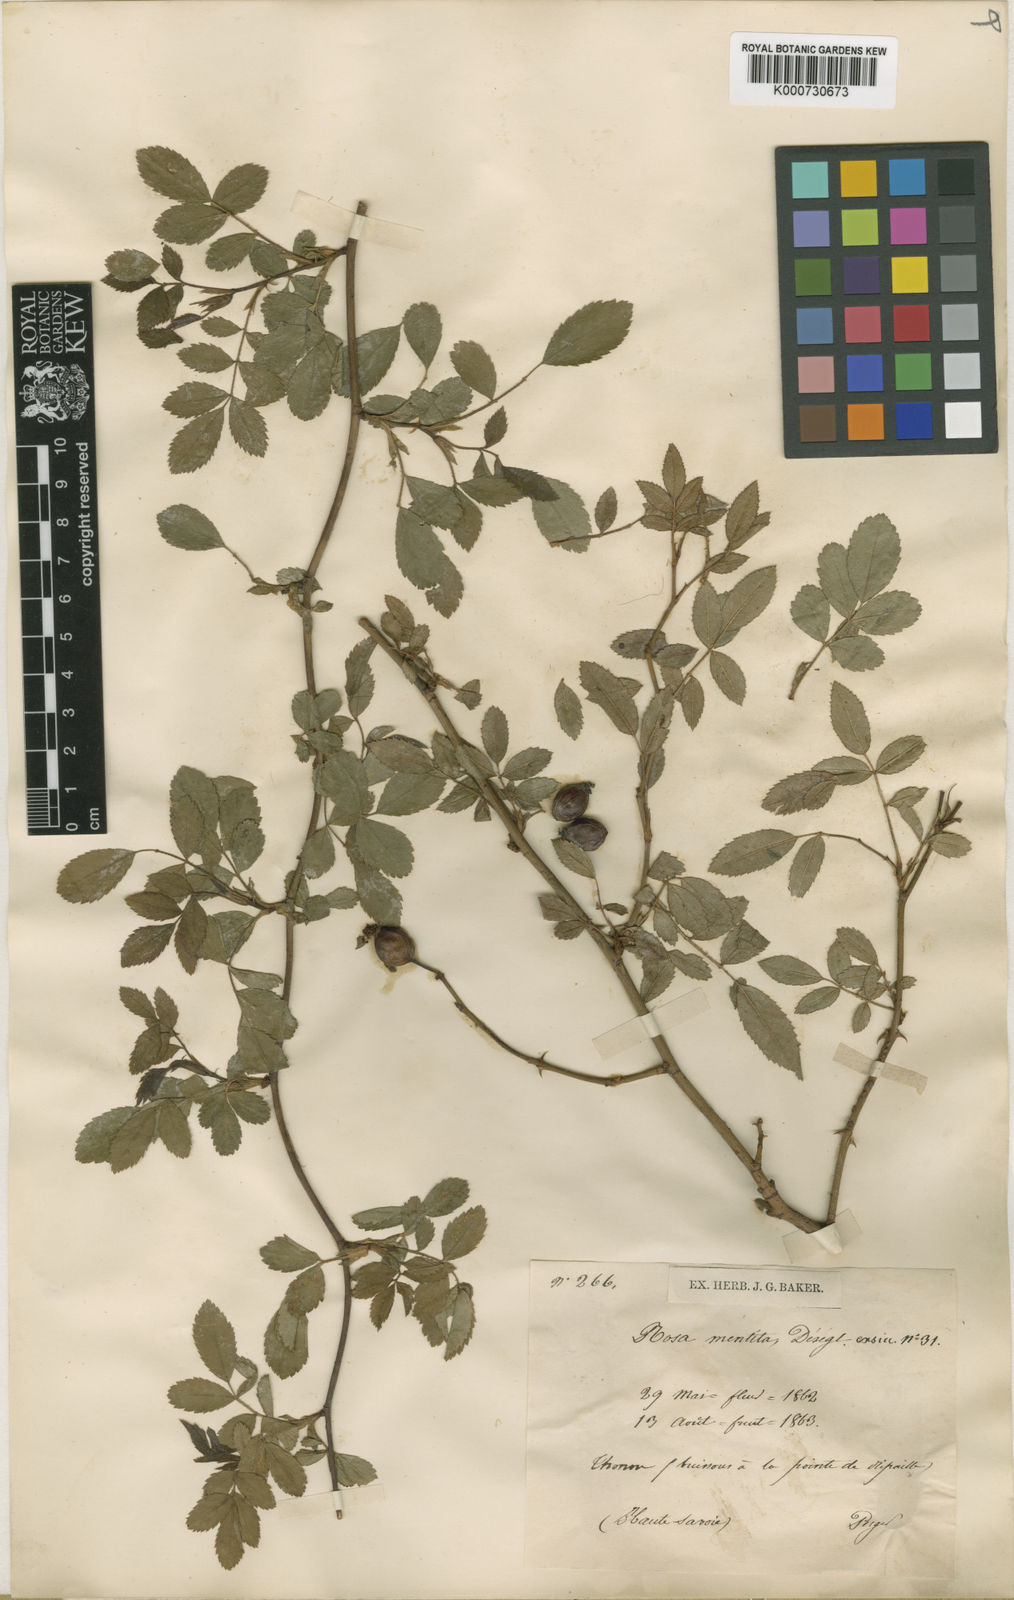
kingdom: Plantae
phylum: Tracheophyta
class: Magnoliopsida
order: Rosales
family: Rosaceae
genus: Rosa
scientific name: Rosa agrestis
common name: Fieldbriar
